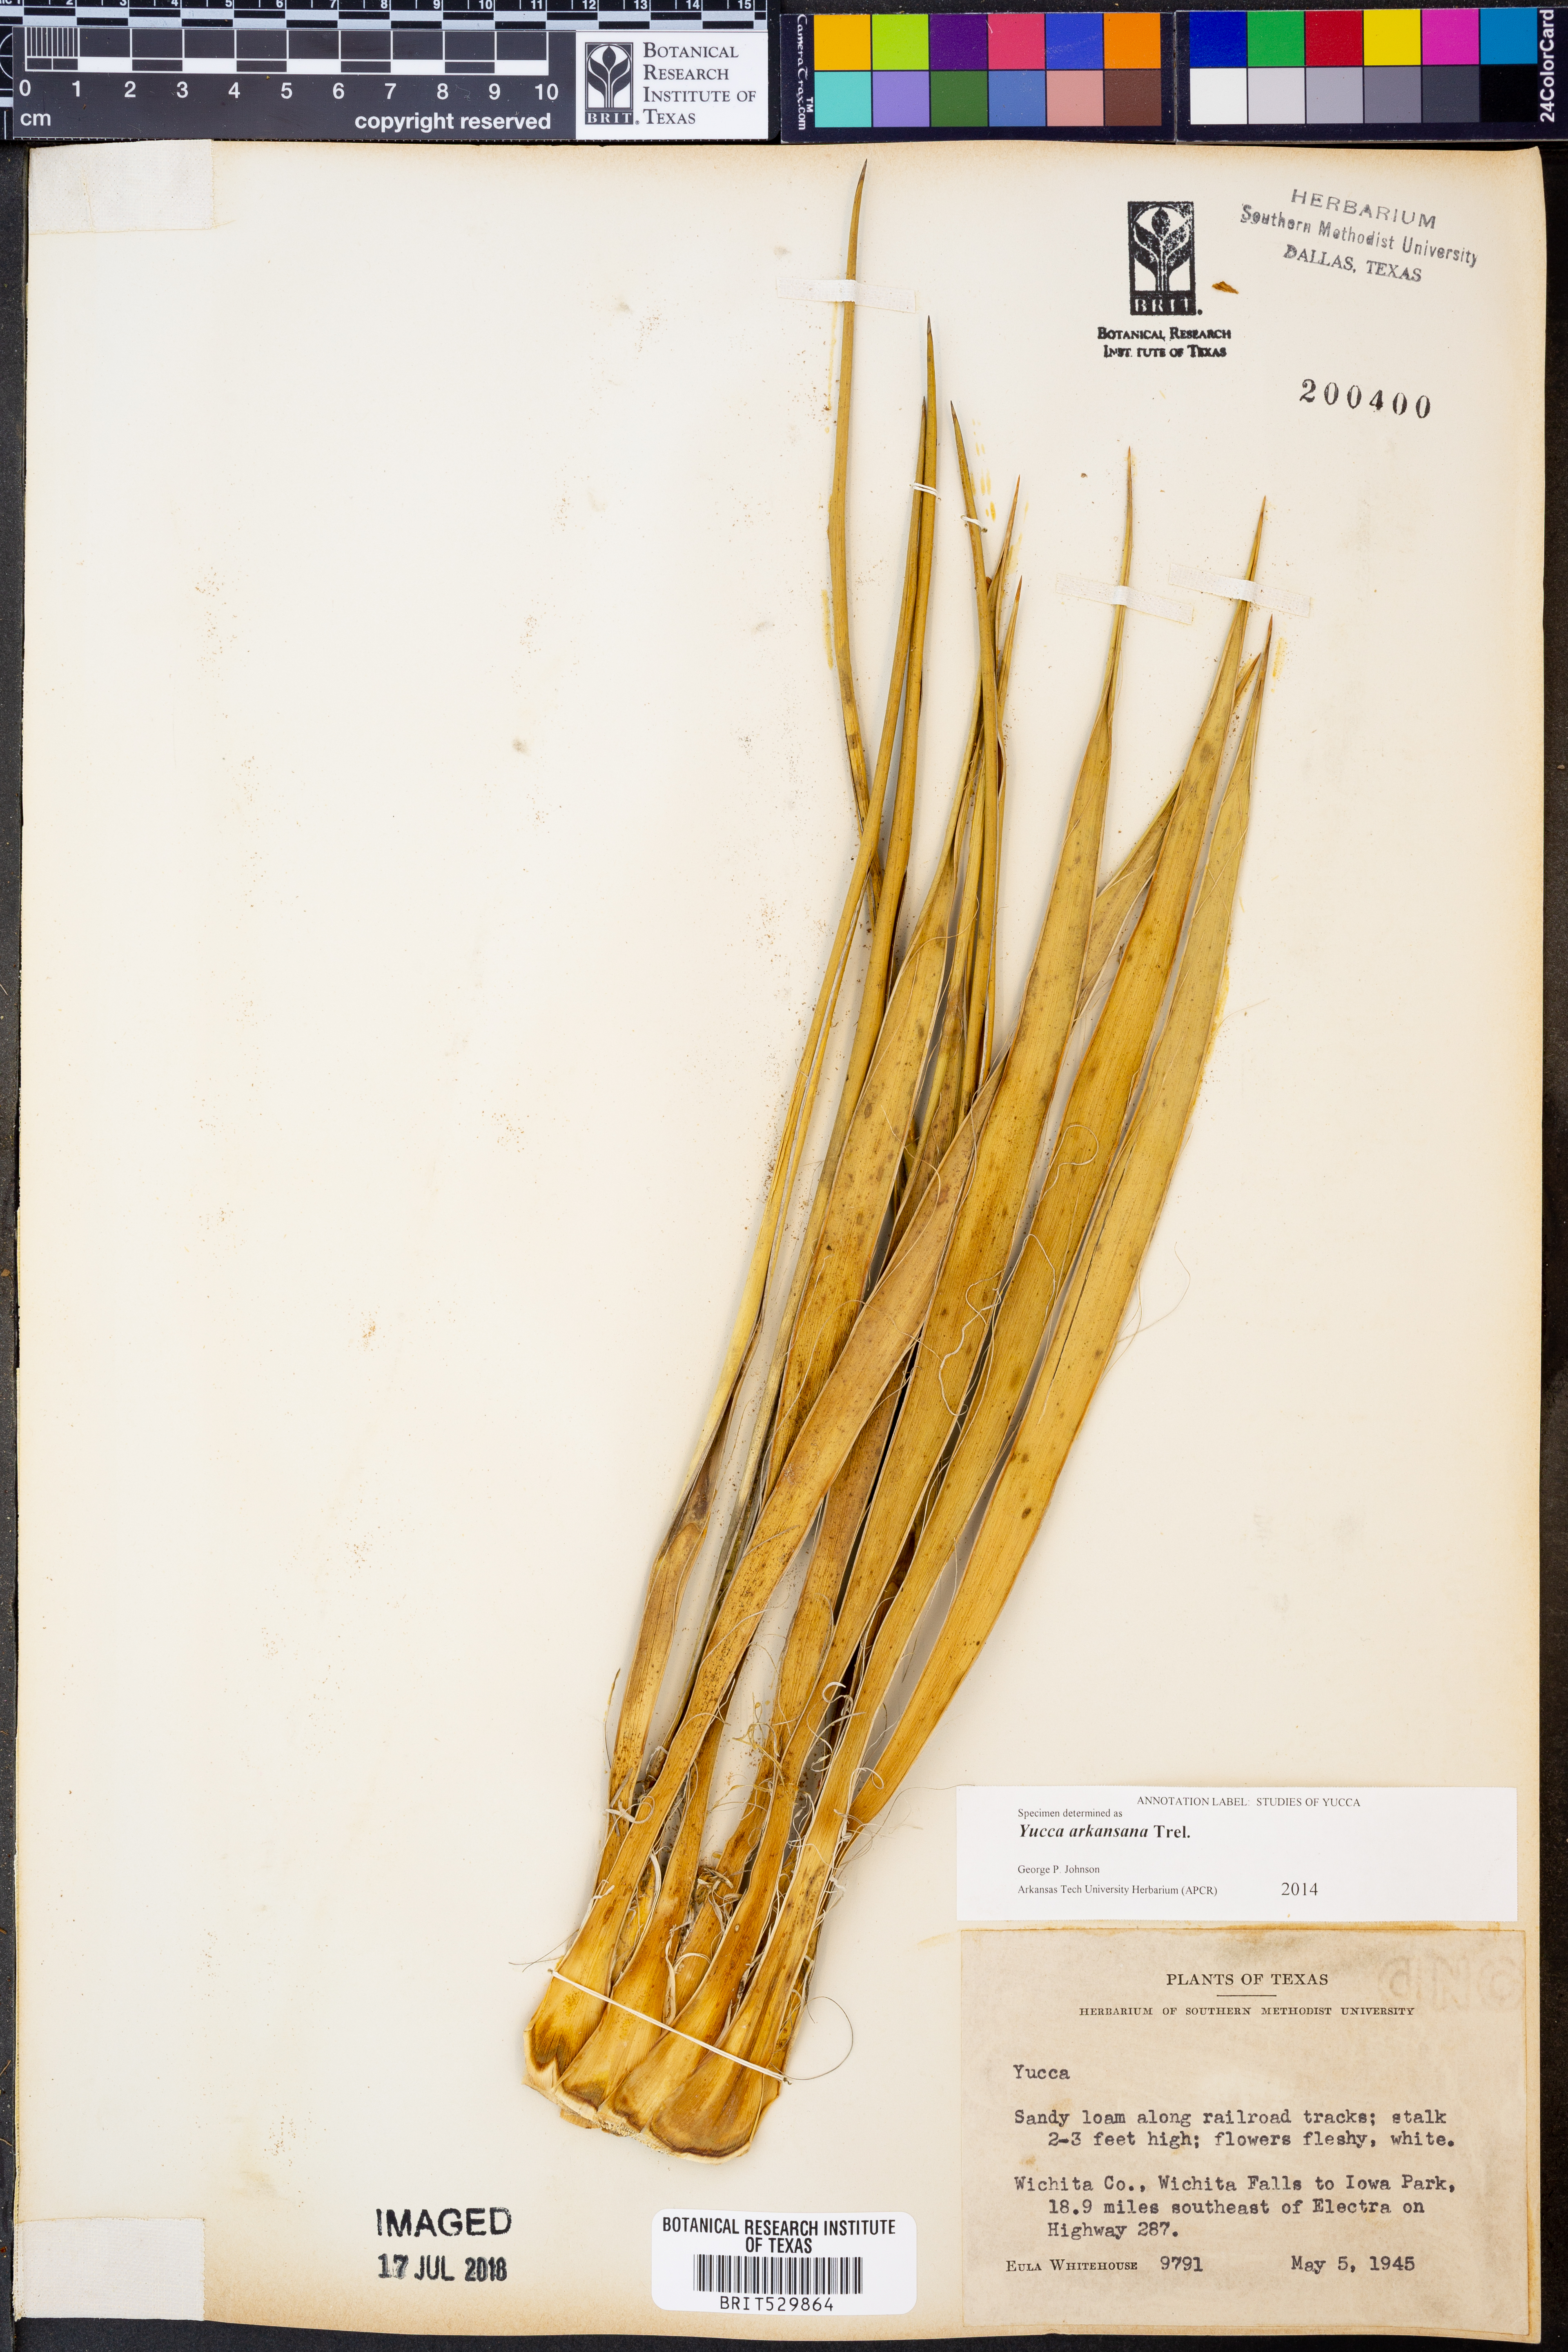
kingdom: Plantae
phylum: Tracheophyta
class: Liliopsida
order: Asparagales
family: Asparagaceae
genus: Yucca
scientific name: Yucca arkansana
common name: Arkansas yucca
